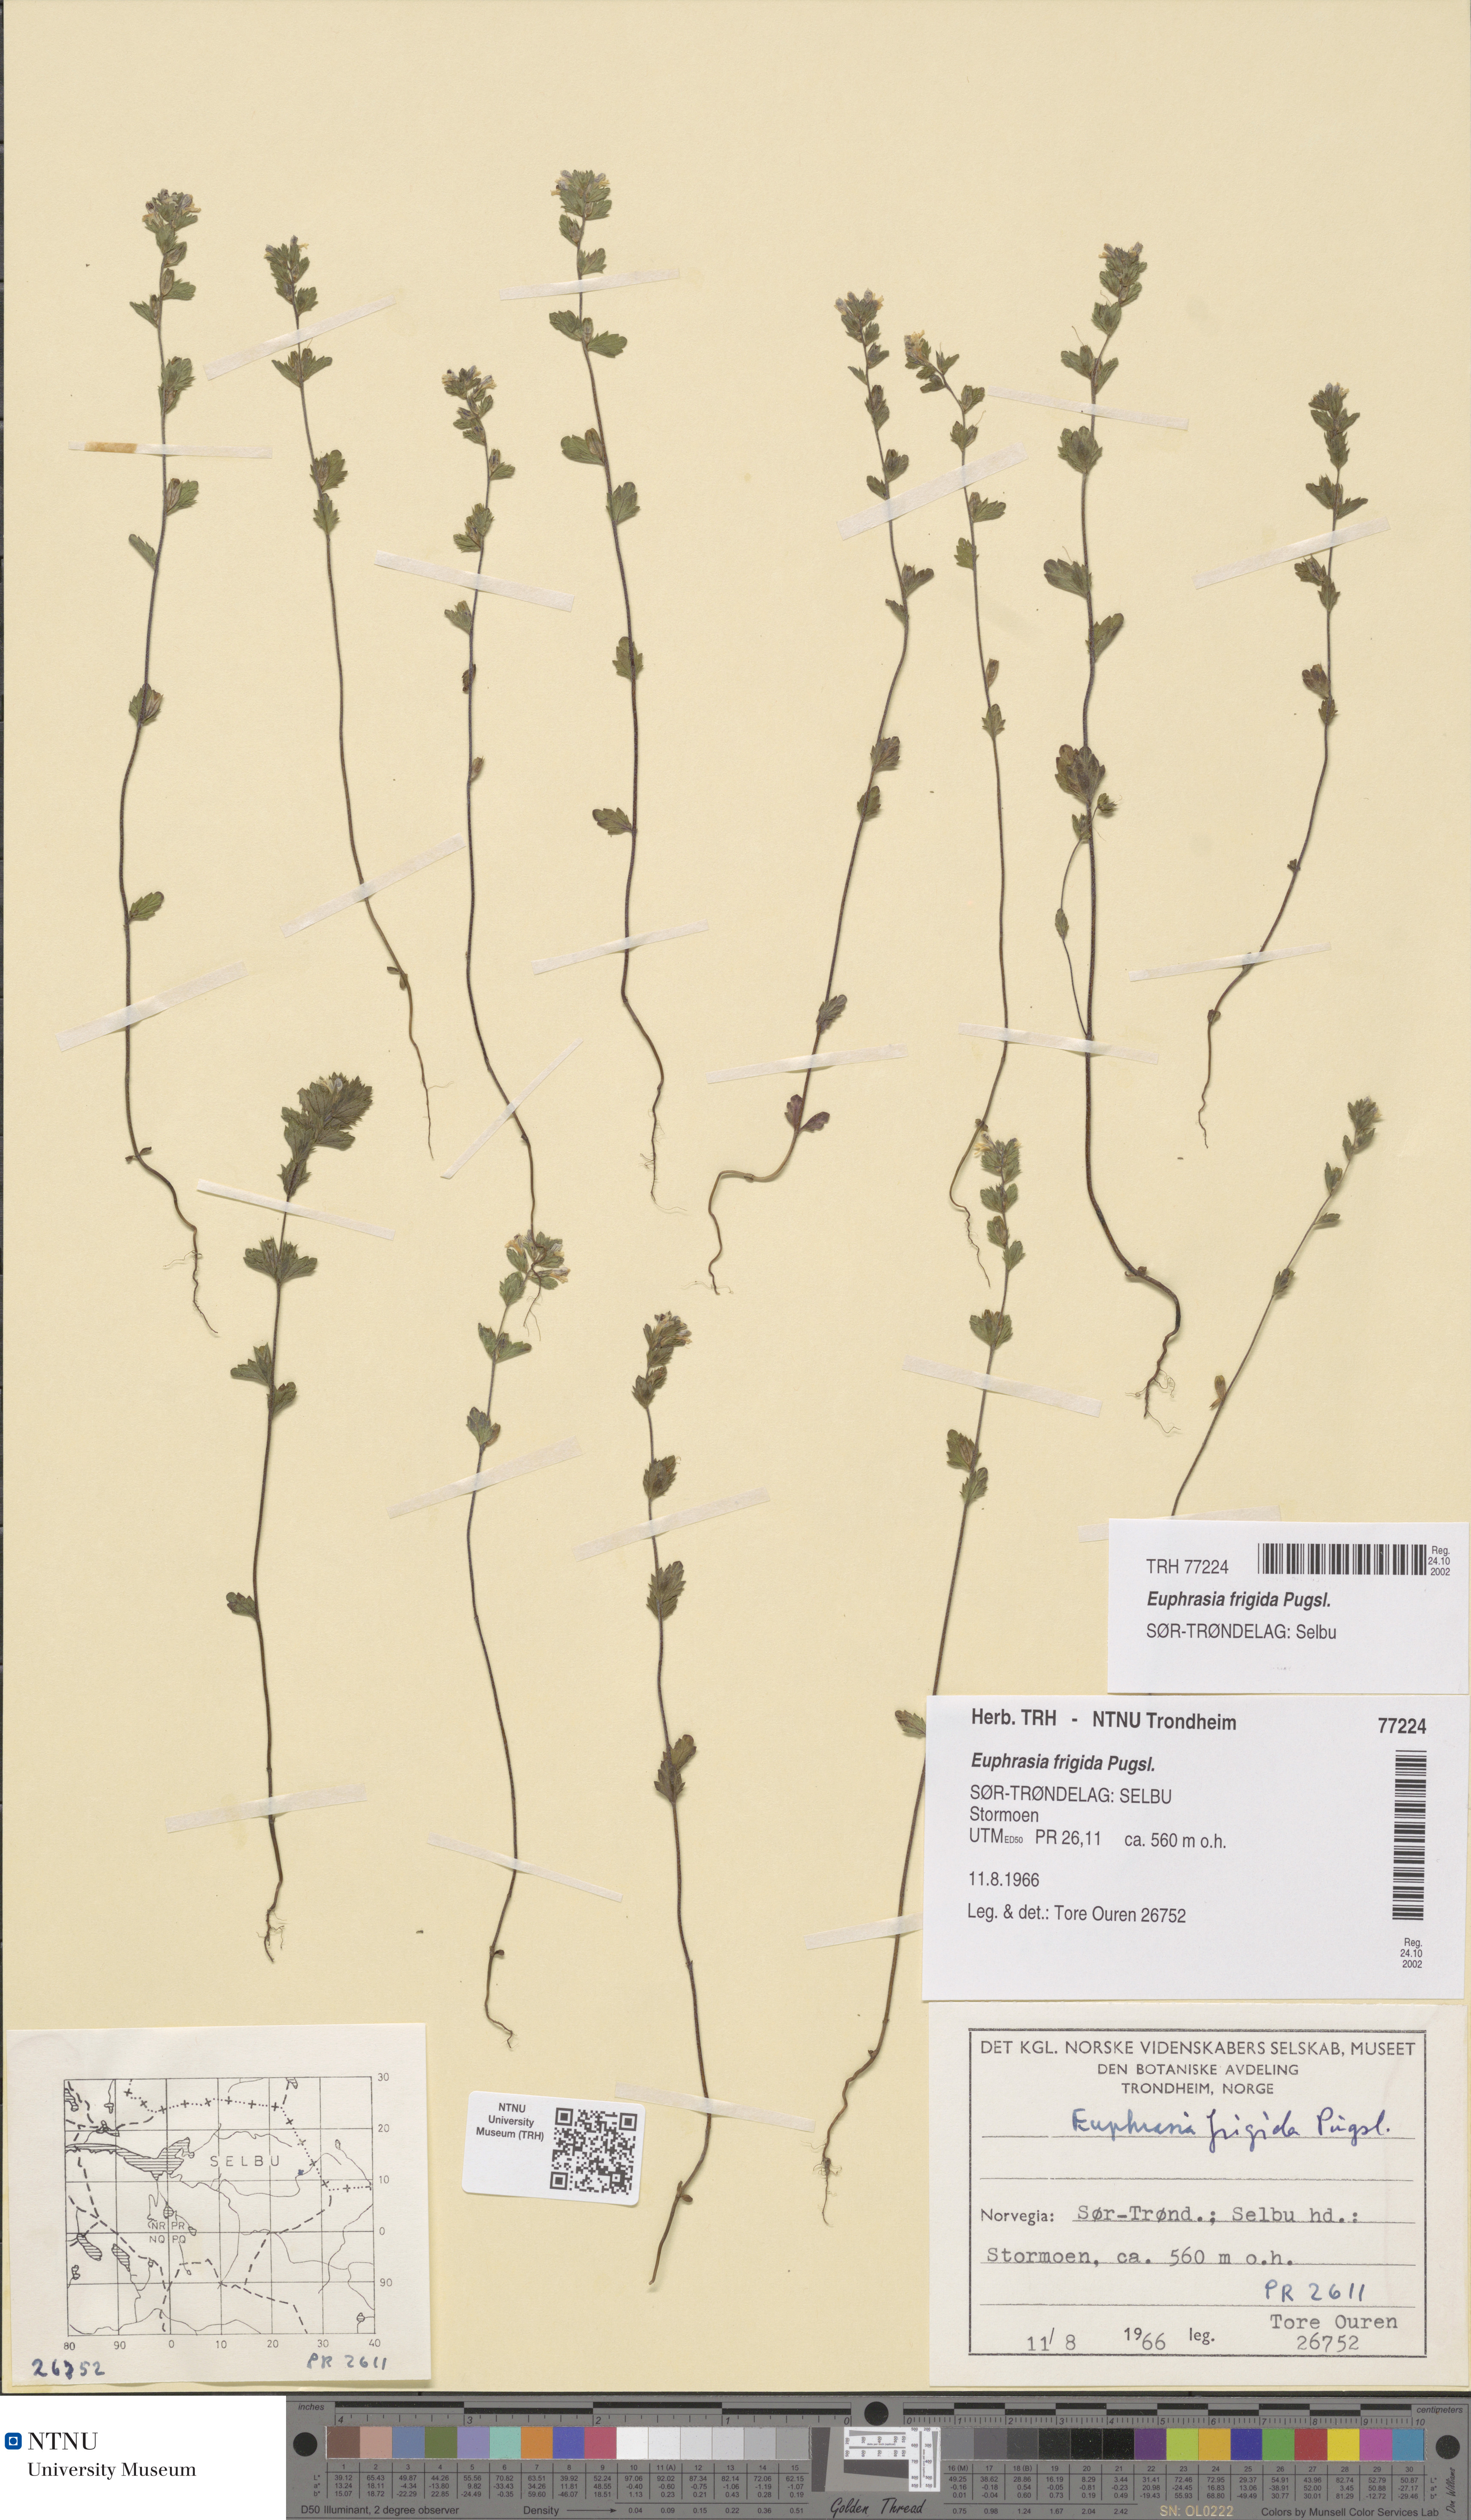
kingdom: Plantae
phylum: Tracheophyta
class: Magnoliopsida
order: Lamiales
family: Orobanchaceae
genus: Euphrasia
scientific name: Euphrasia wettsteinii
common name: Wettstein's eyebright
